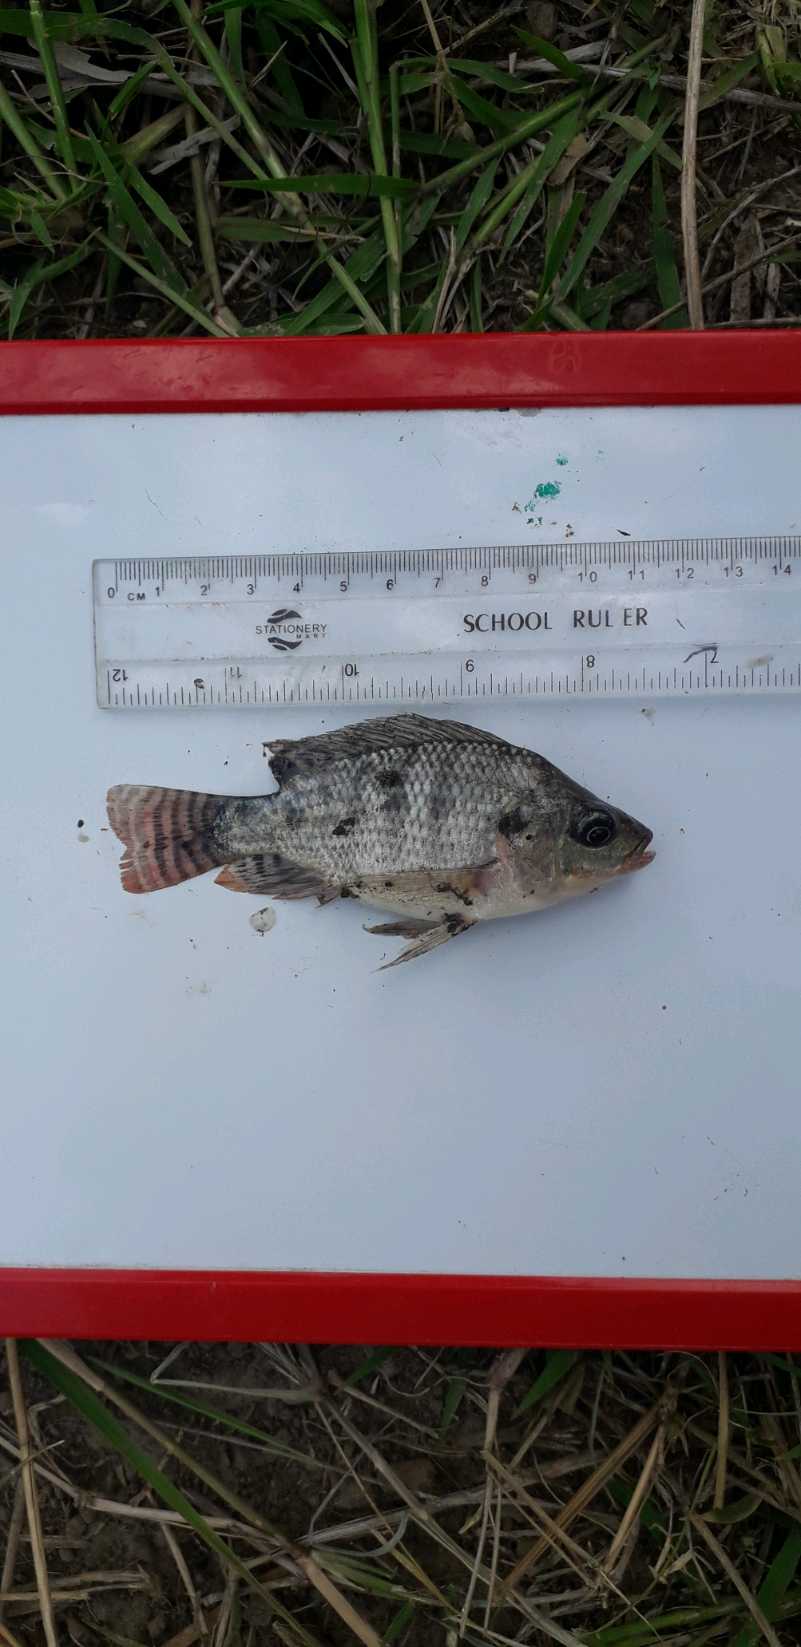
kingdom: Animalia
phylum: Chordata
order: Perciformes
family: Cichlidae
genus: Oreochromis
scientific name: Oreochromis niloticus
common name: Nile tilapia
